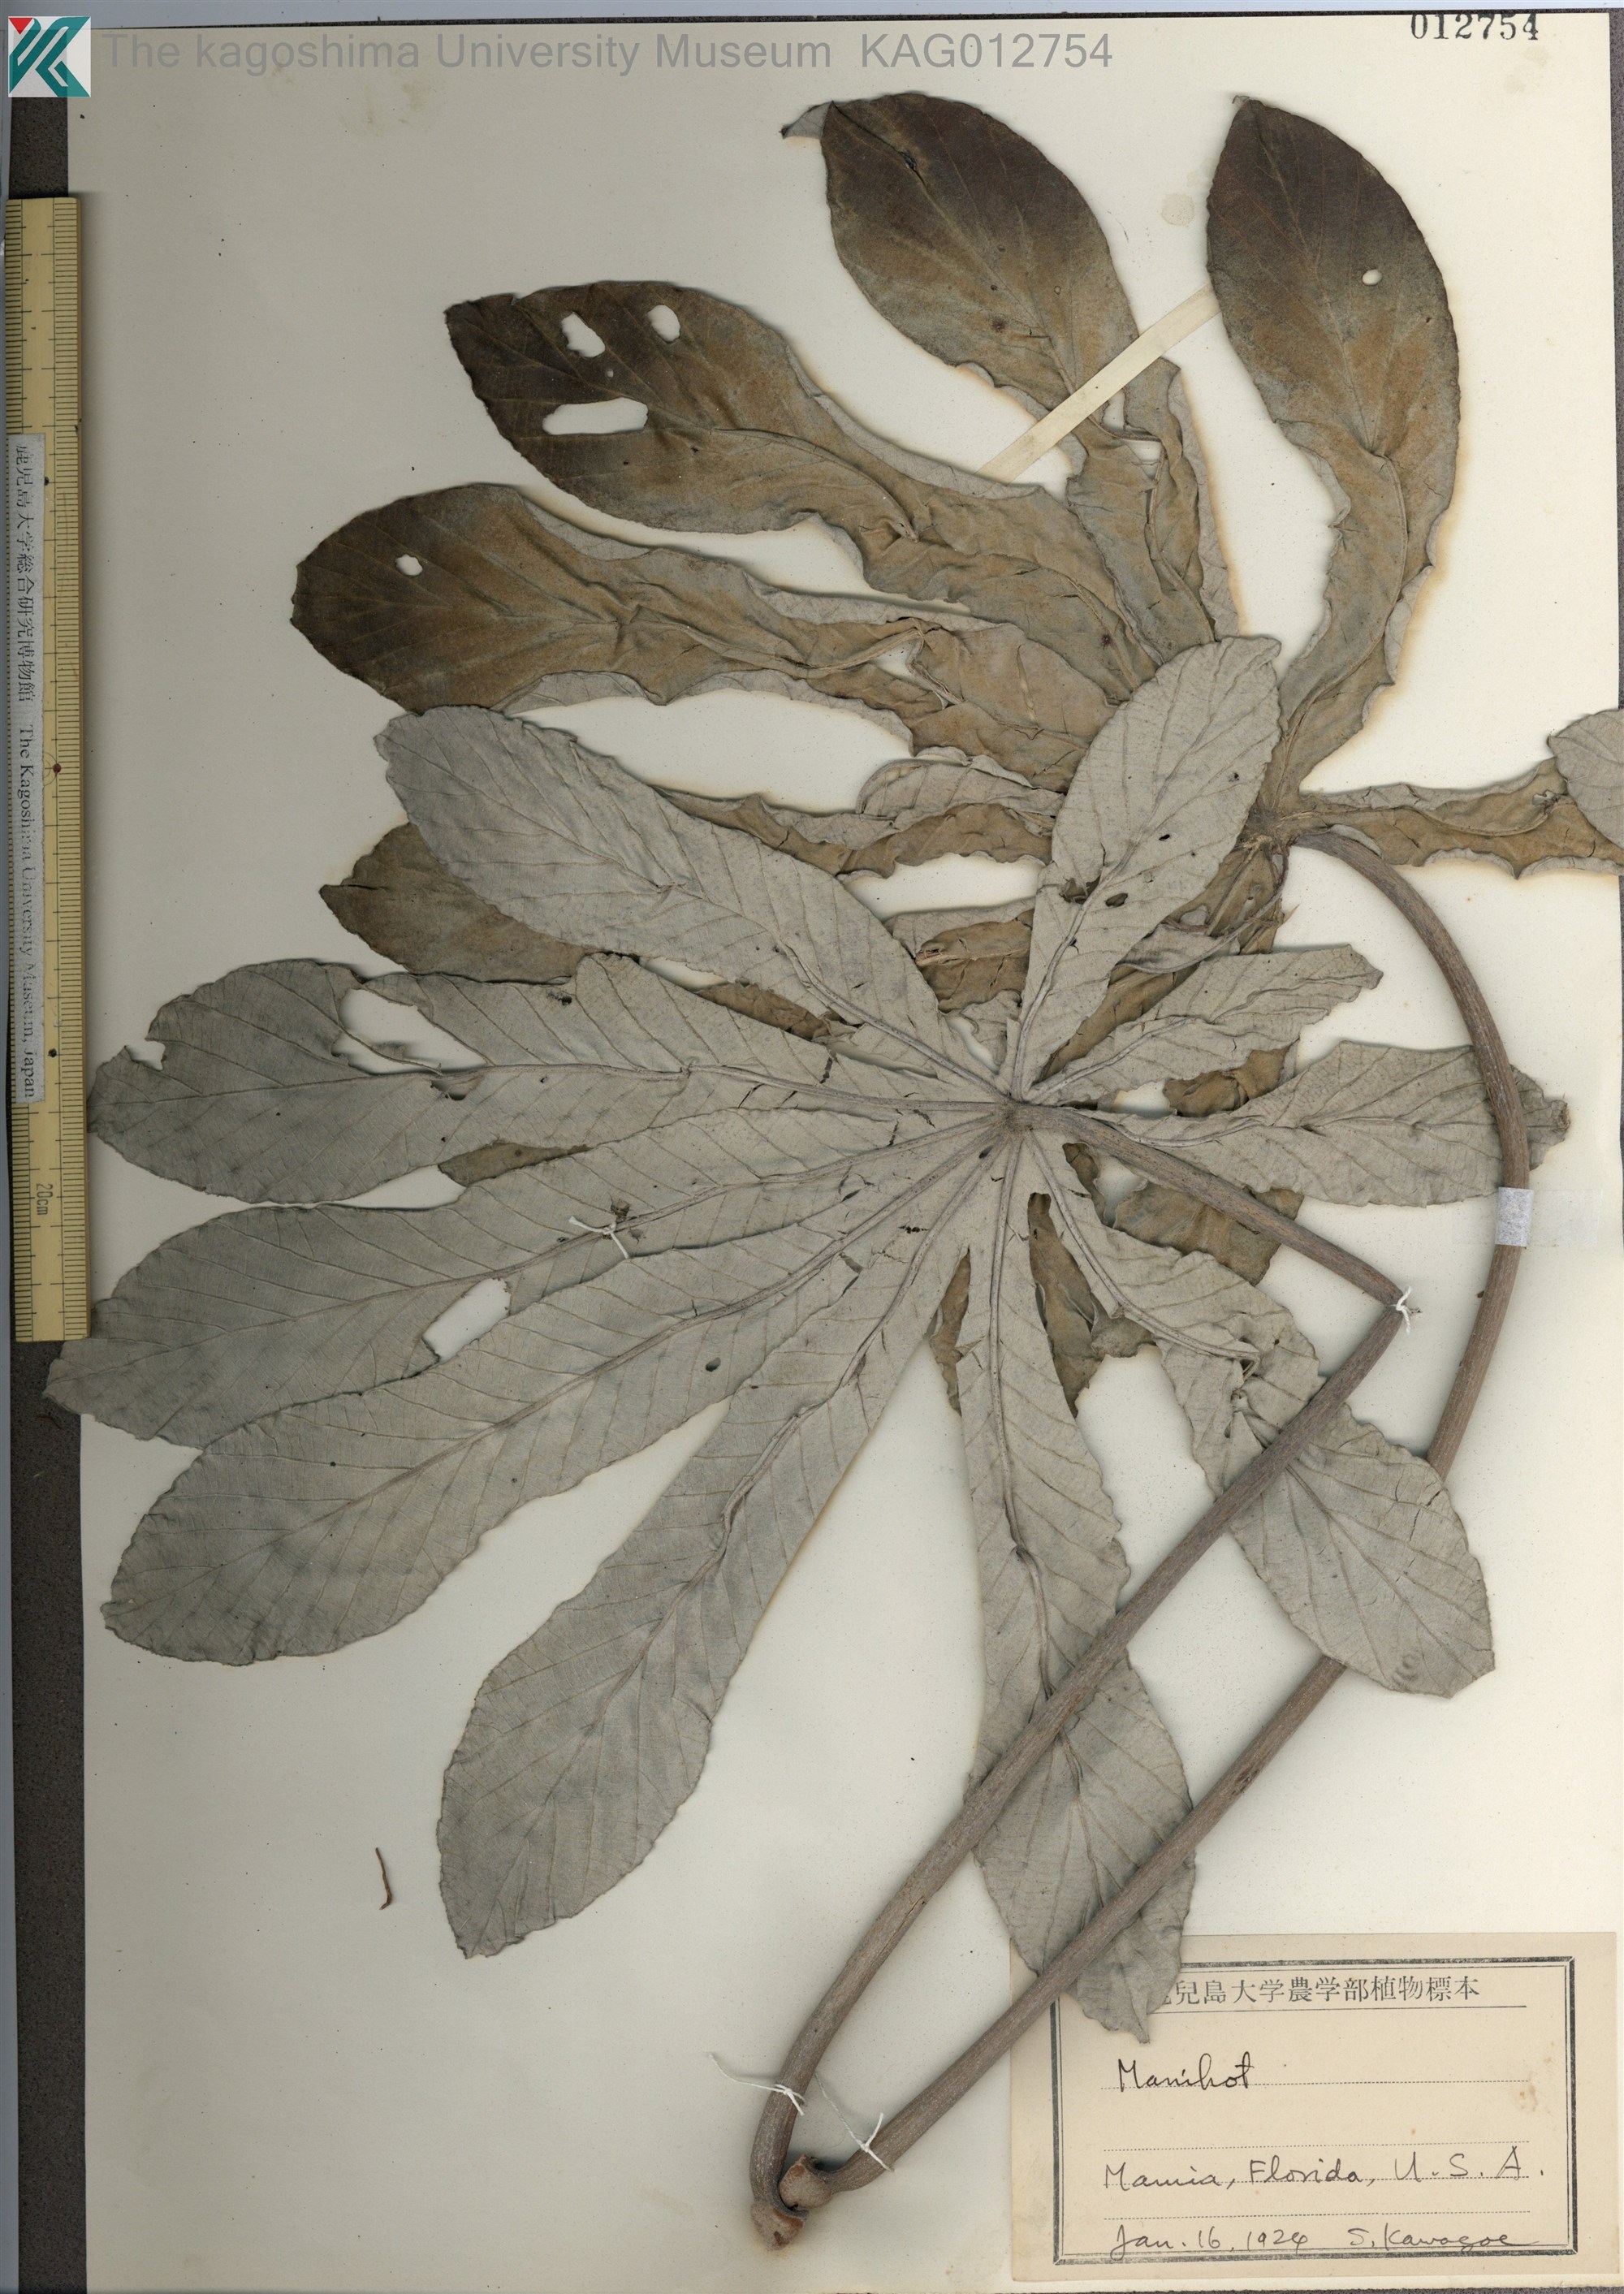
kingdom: Plantae
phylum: Tracheophyta
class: Magnoliopsida
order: Malpighiales
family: Euphorbiaceae
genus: Manihot
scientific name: Manihot
